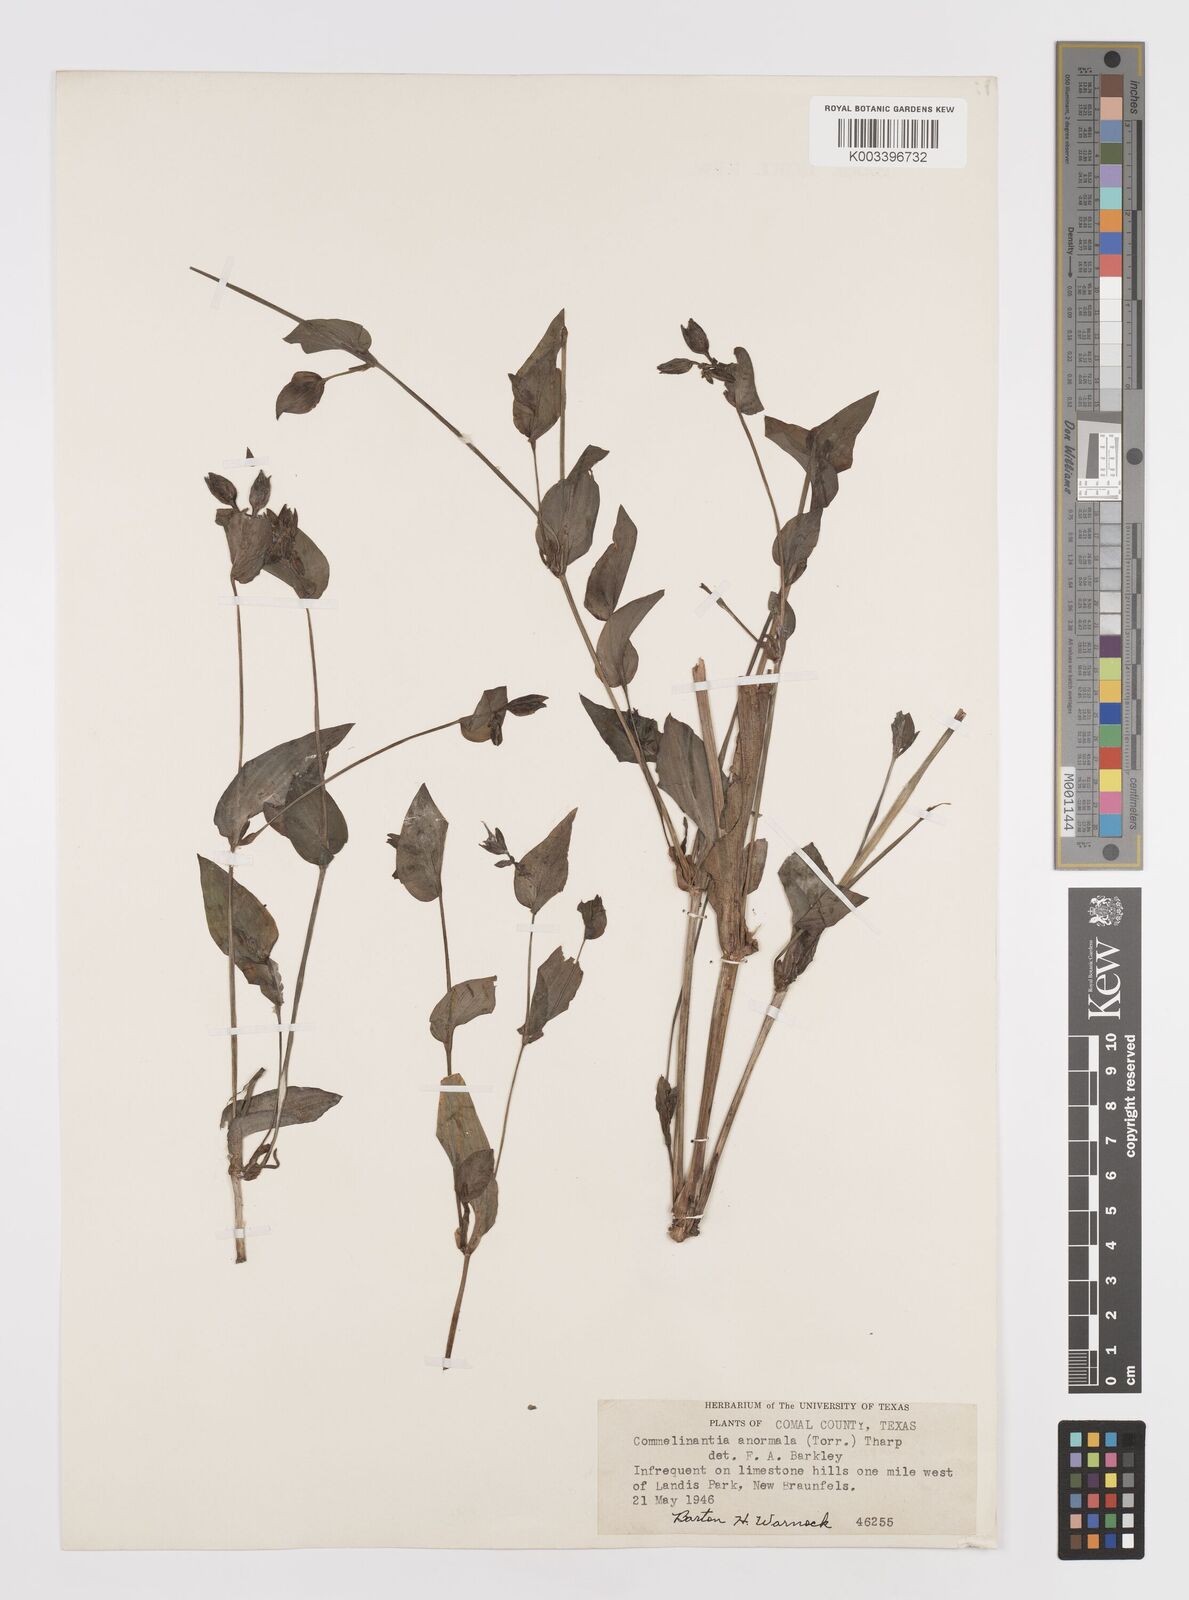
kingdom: Plantae
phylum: Tracheophyta
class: Liliopsida
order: Commelinales
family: Commelinaceae
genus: Tinantia
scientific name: Tinantia anomala
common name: False dayflower
